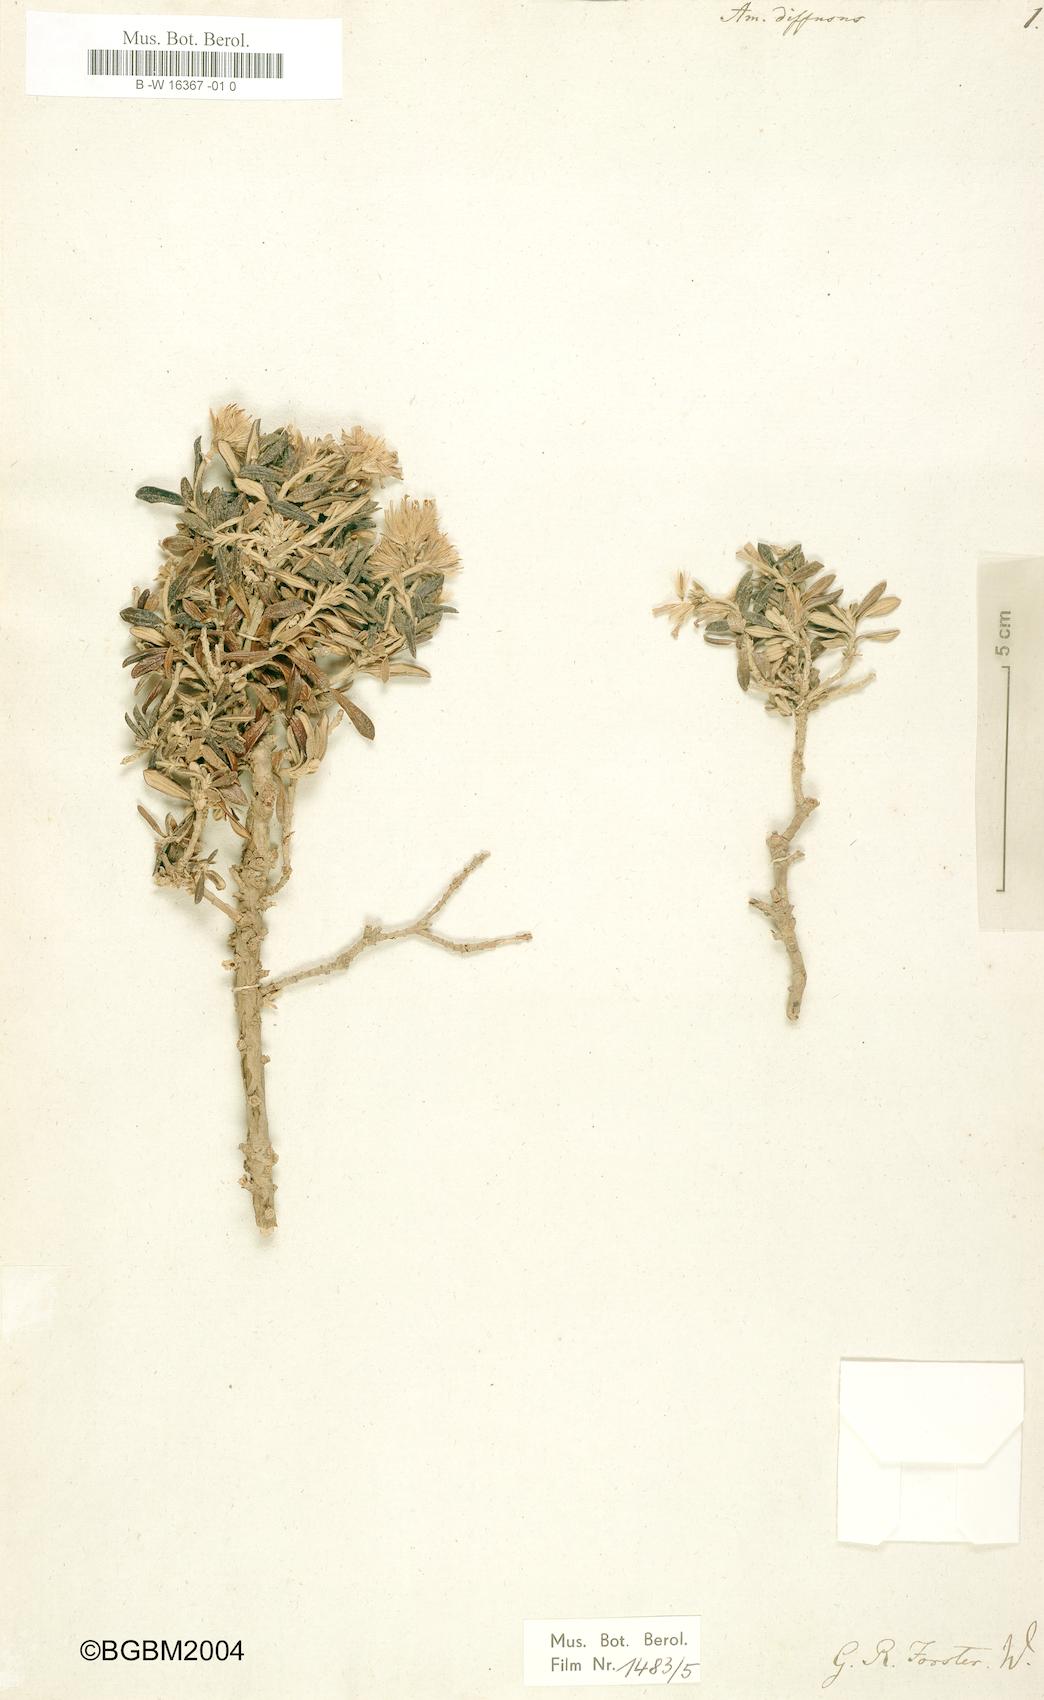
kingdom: Plantae
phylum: Tracheophyta
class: Magnoliopsida
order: Asterales
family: Asteraceae
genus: Chiliotrichum
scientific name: Chiliotrichum diffusum
